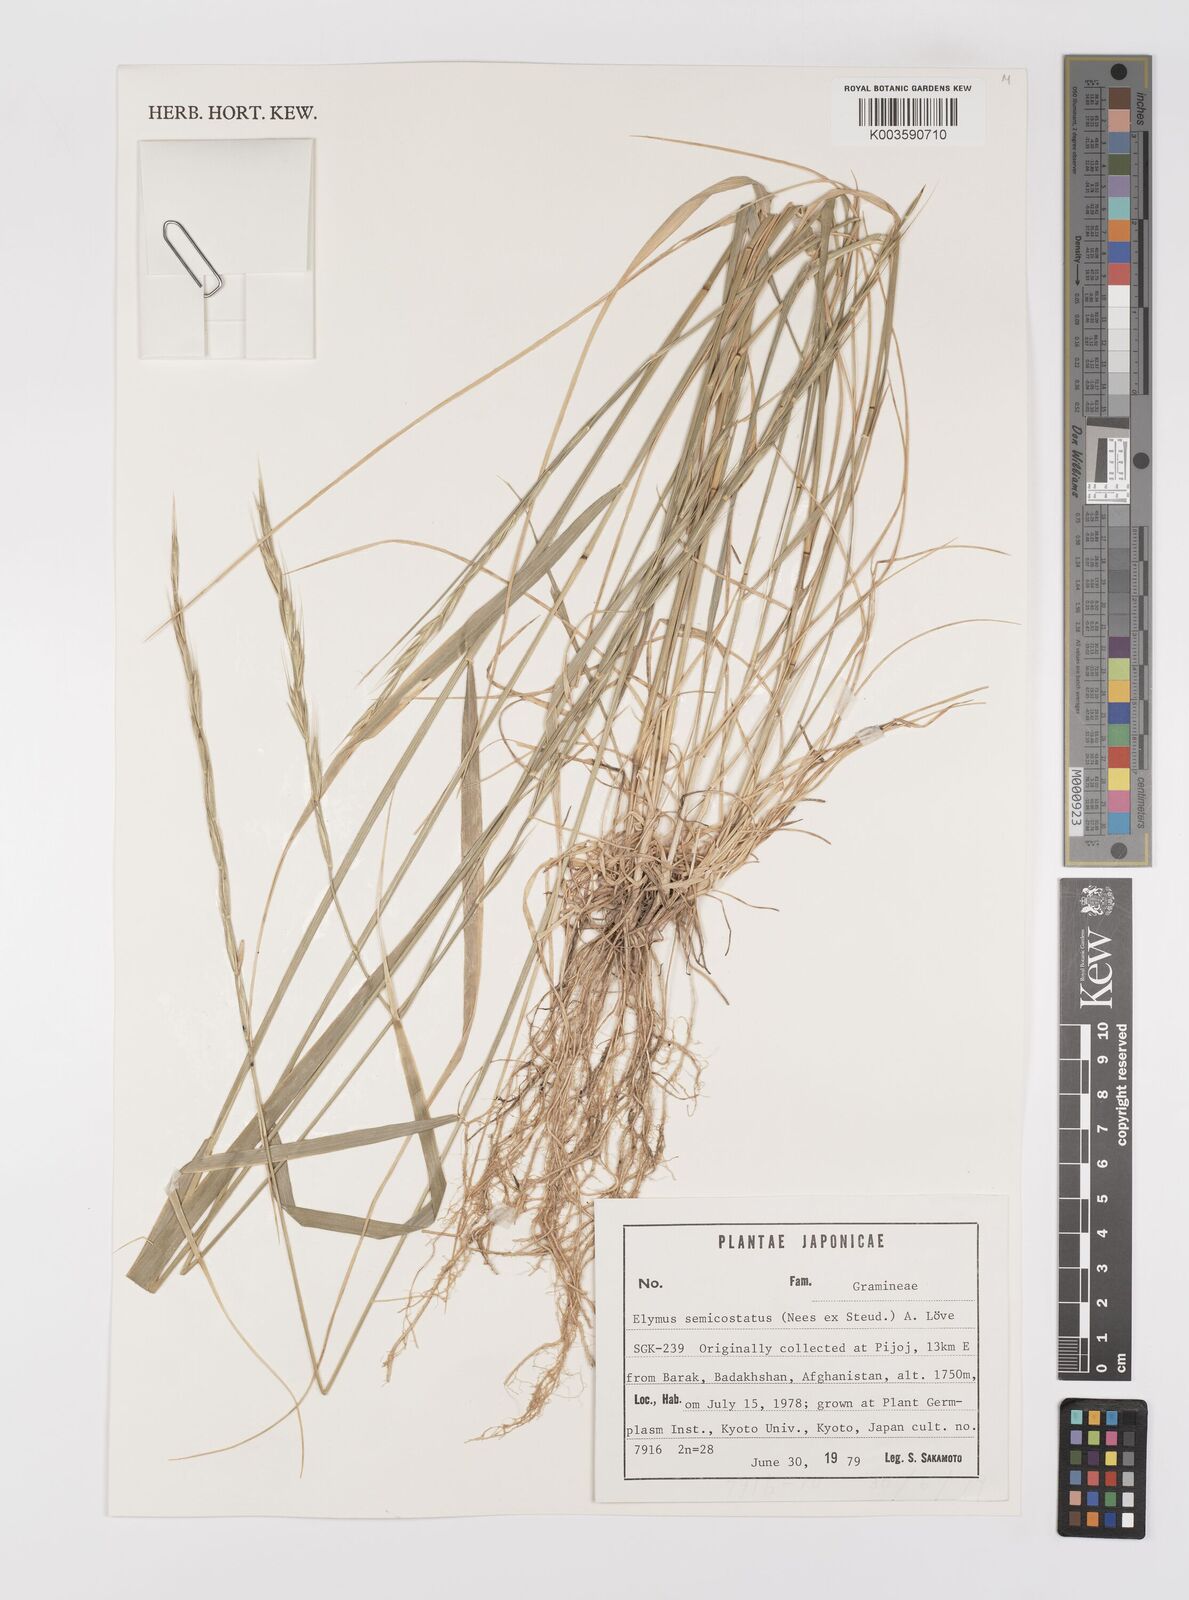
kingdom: Plantae
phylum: Tracheophyta
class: Liliopsida
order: Poales
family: Poaceae
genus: Elymus
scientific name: Elymus semicostatus
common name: Drooping wildrye
